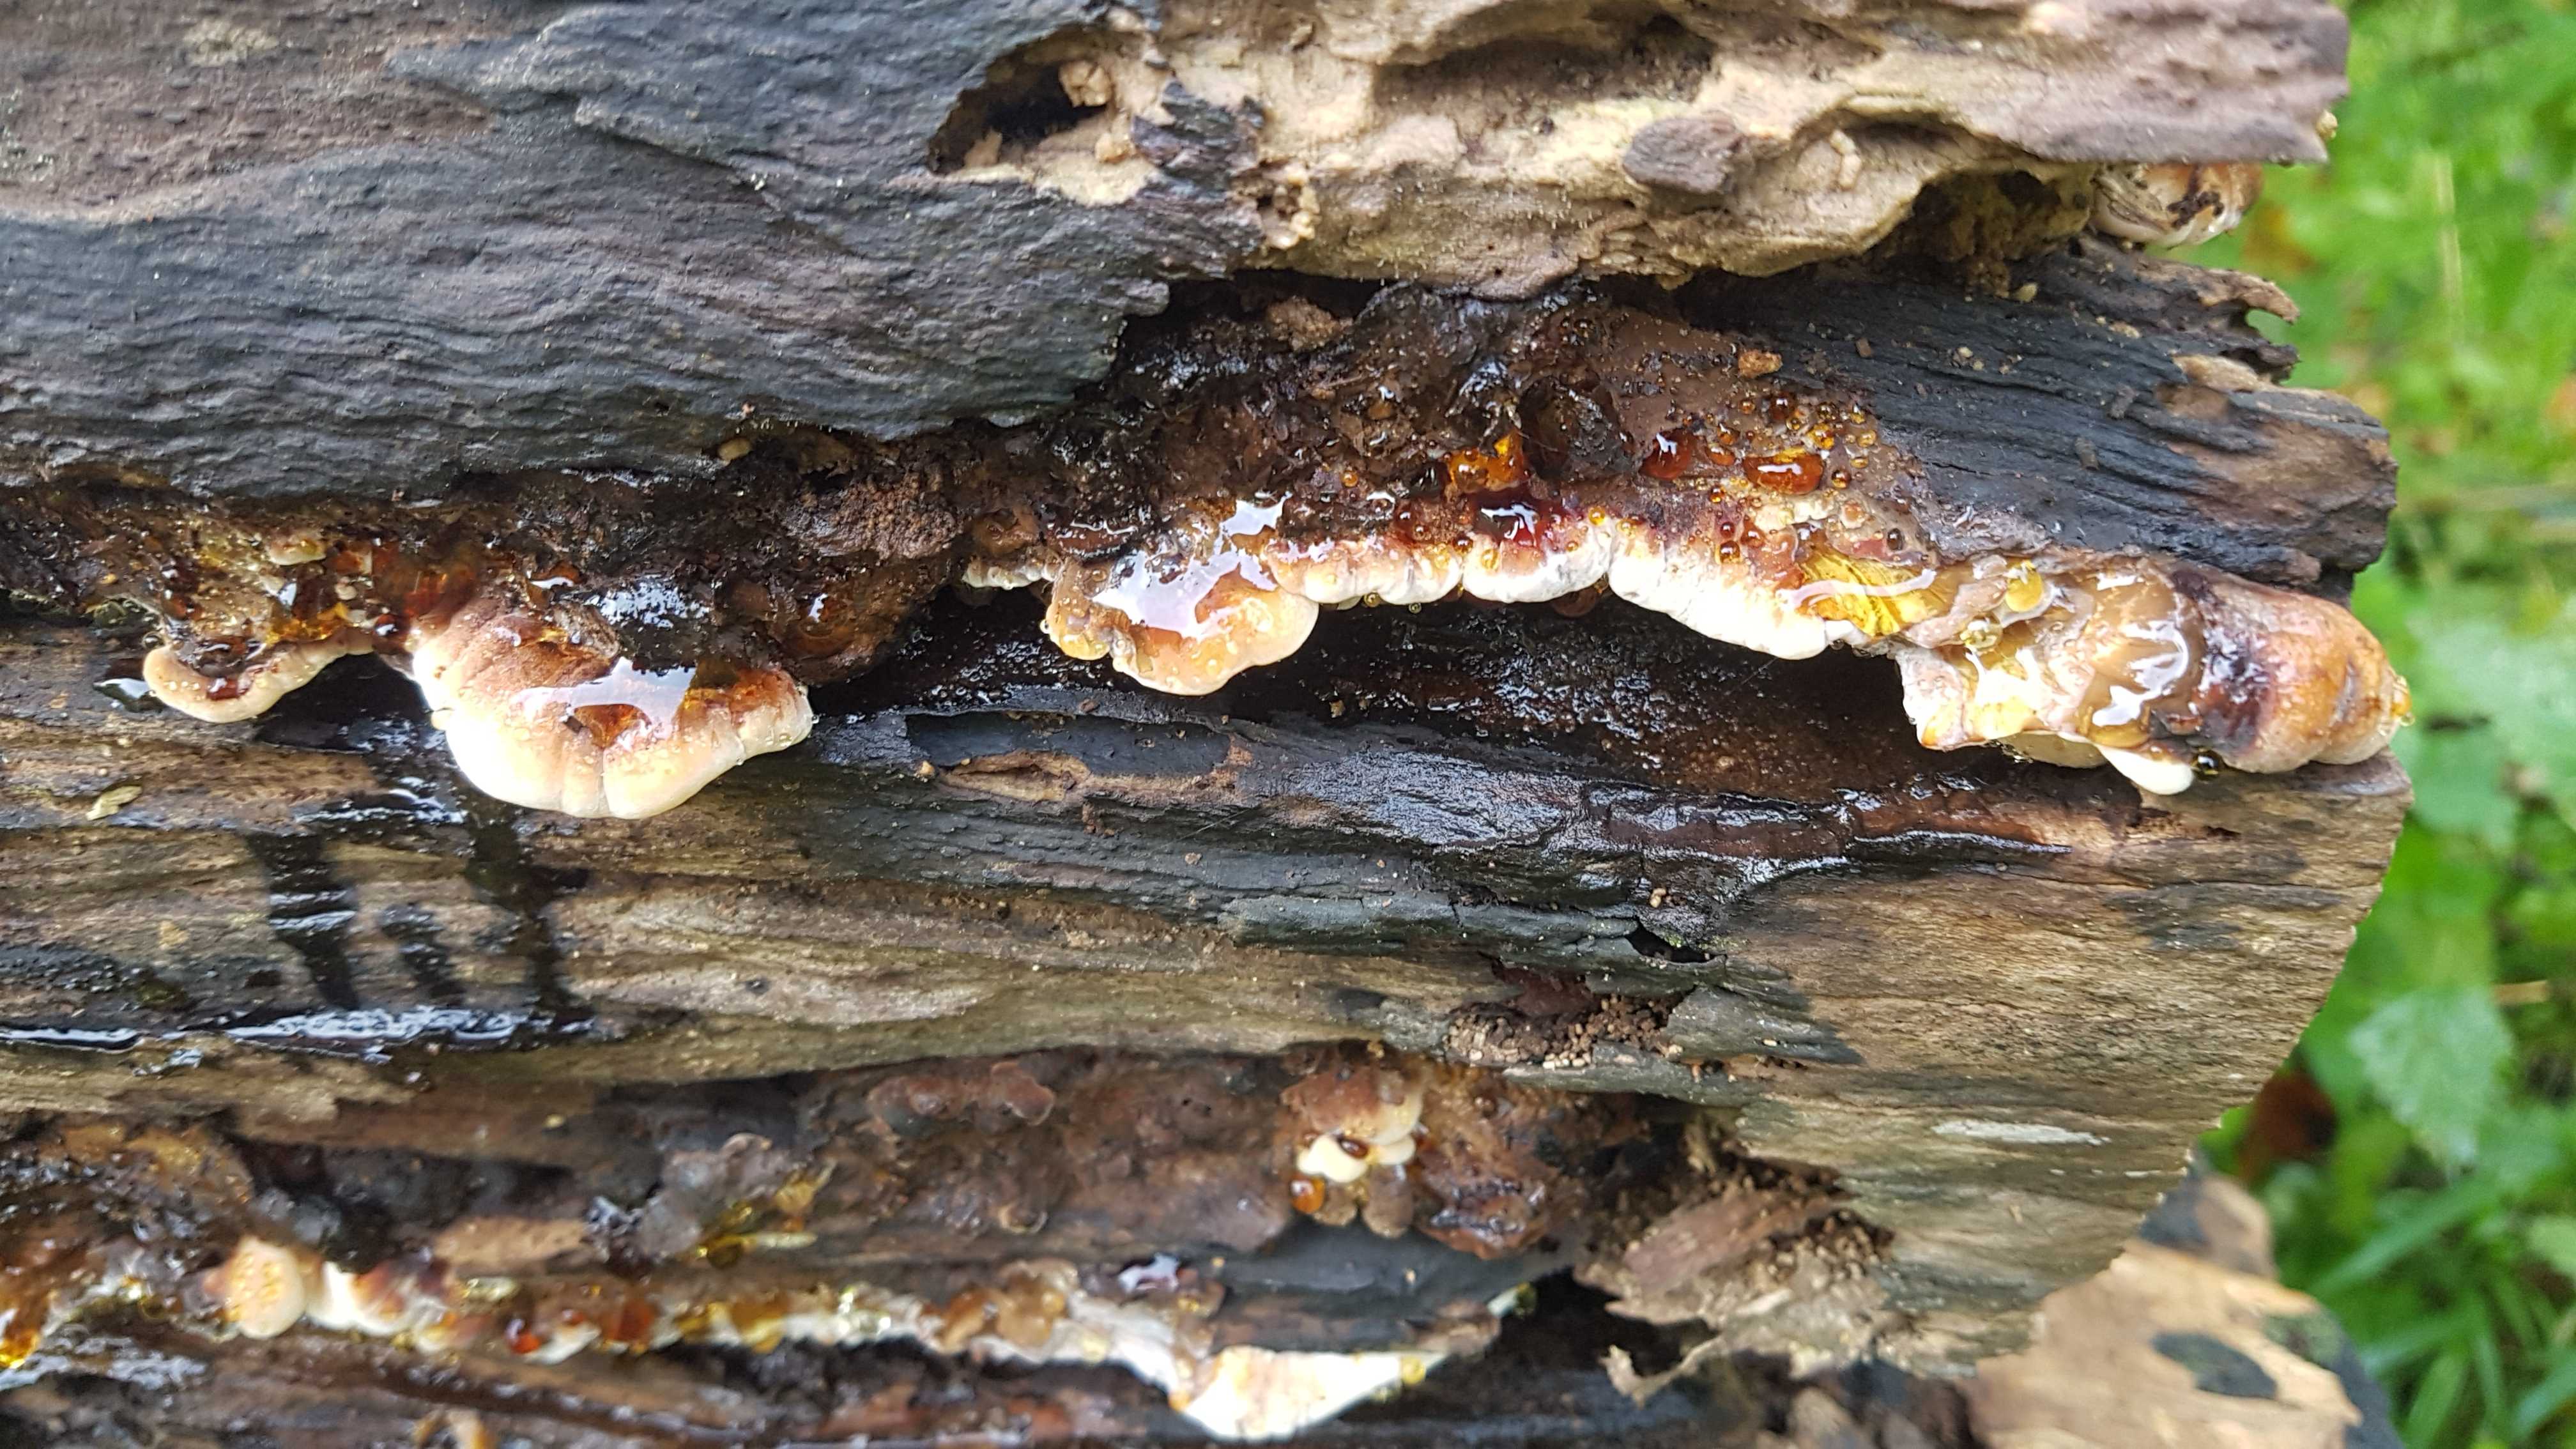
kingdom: Fungi
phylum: Basidiomycota
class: Agaricomycetes
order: Polyporales
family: Ischnodermataceae
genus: Ischnoderma
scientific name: Ischnoderma resinosum
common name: løv-tjæreporesvamp
